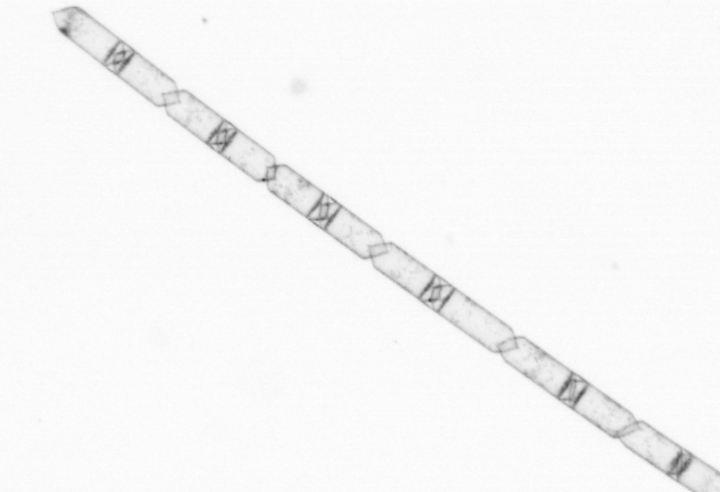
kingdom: Chromista
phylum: Ochrophyta
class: Bacillariophyceae
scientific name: Bacillariophyceae
